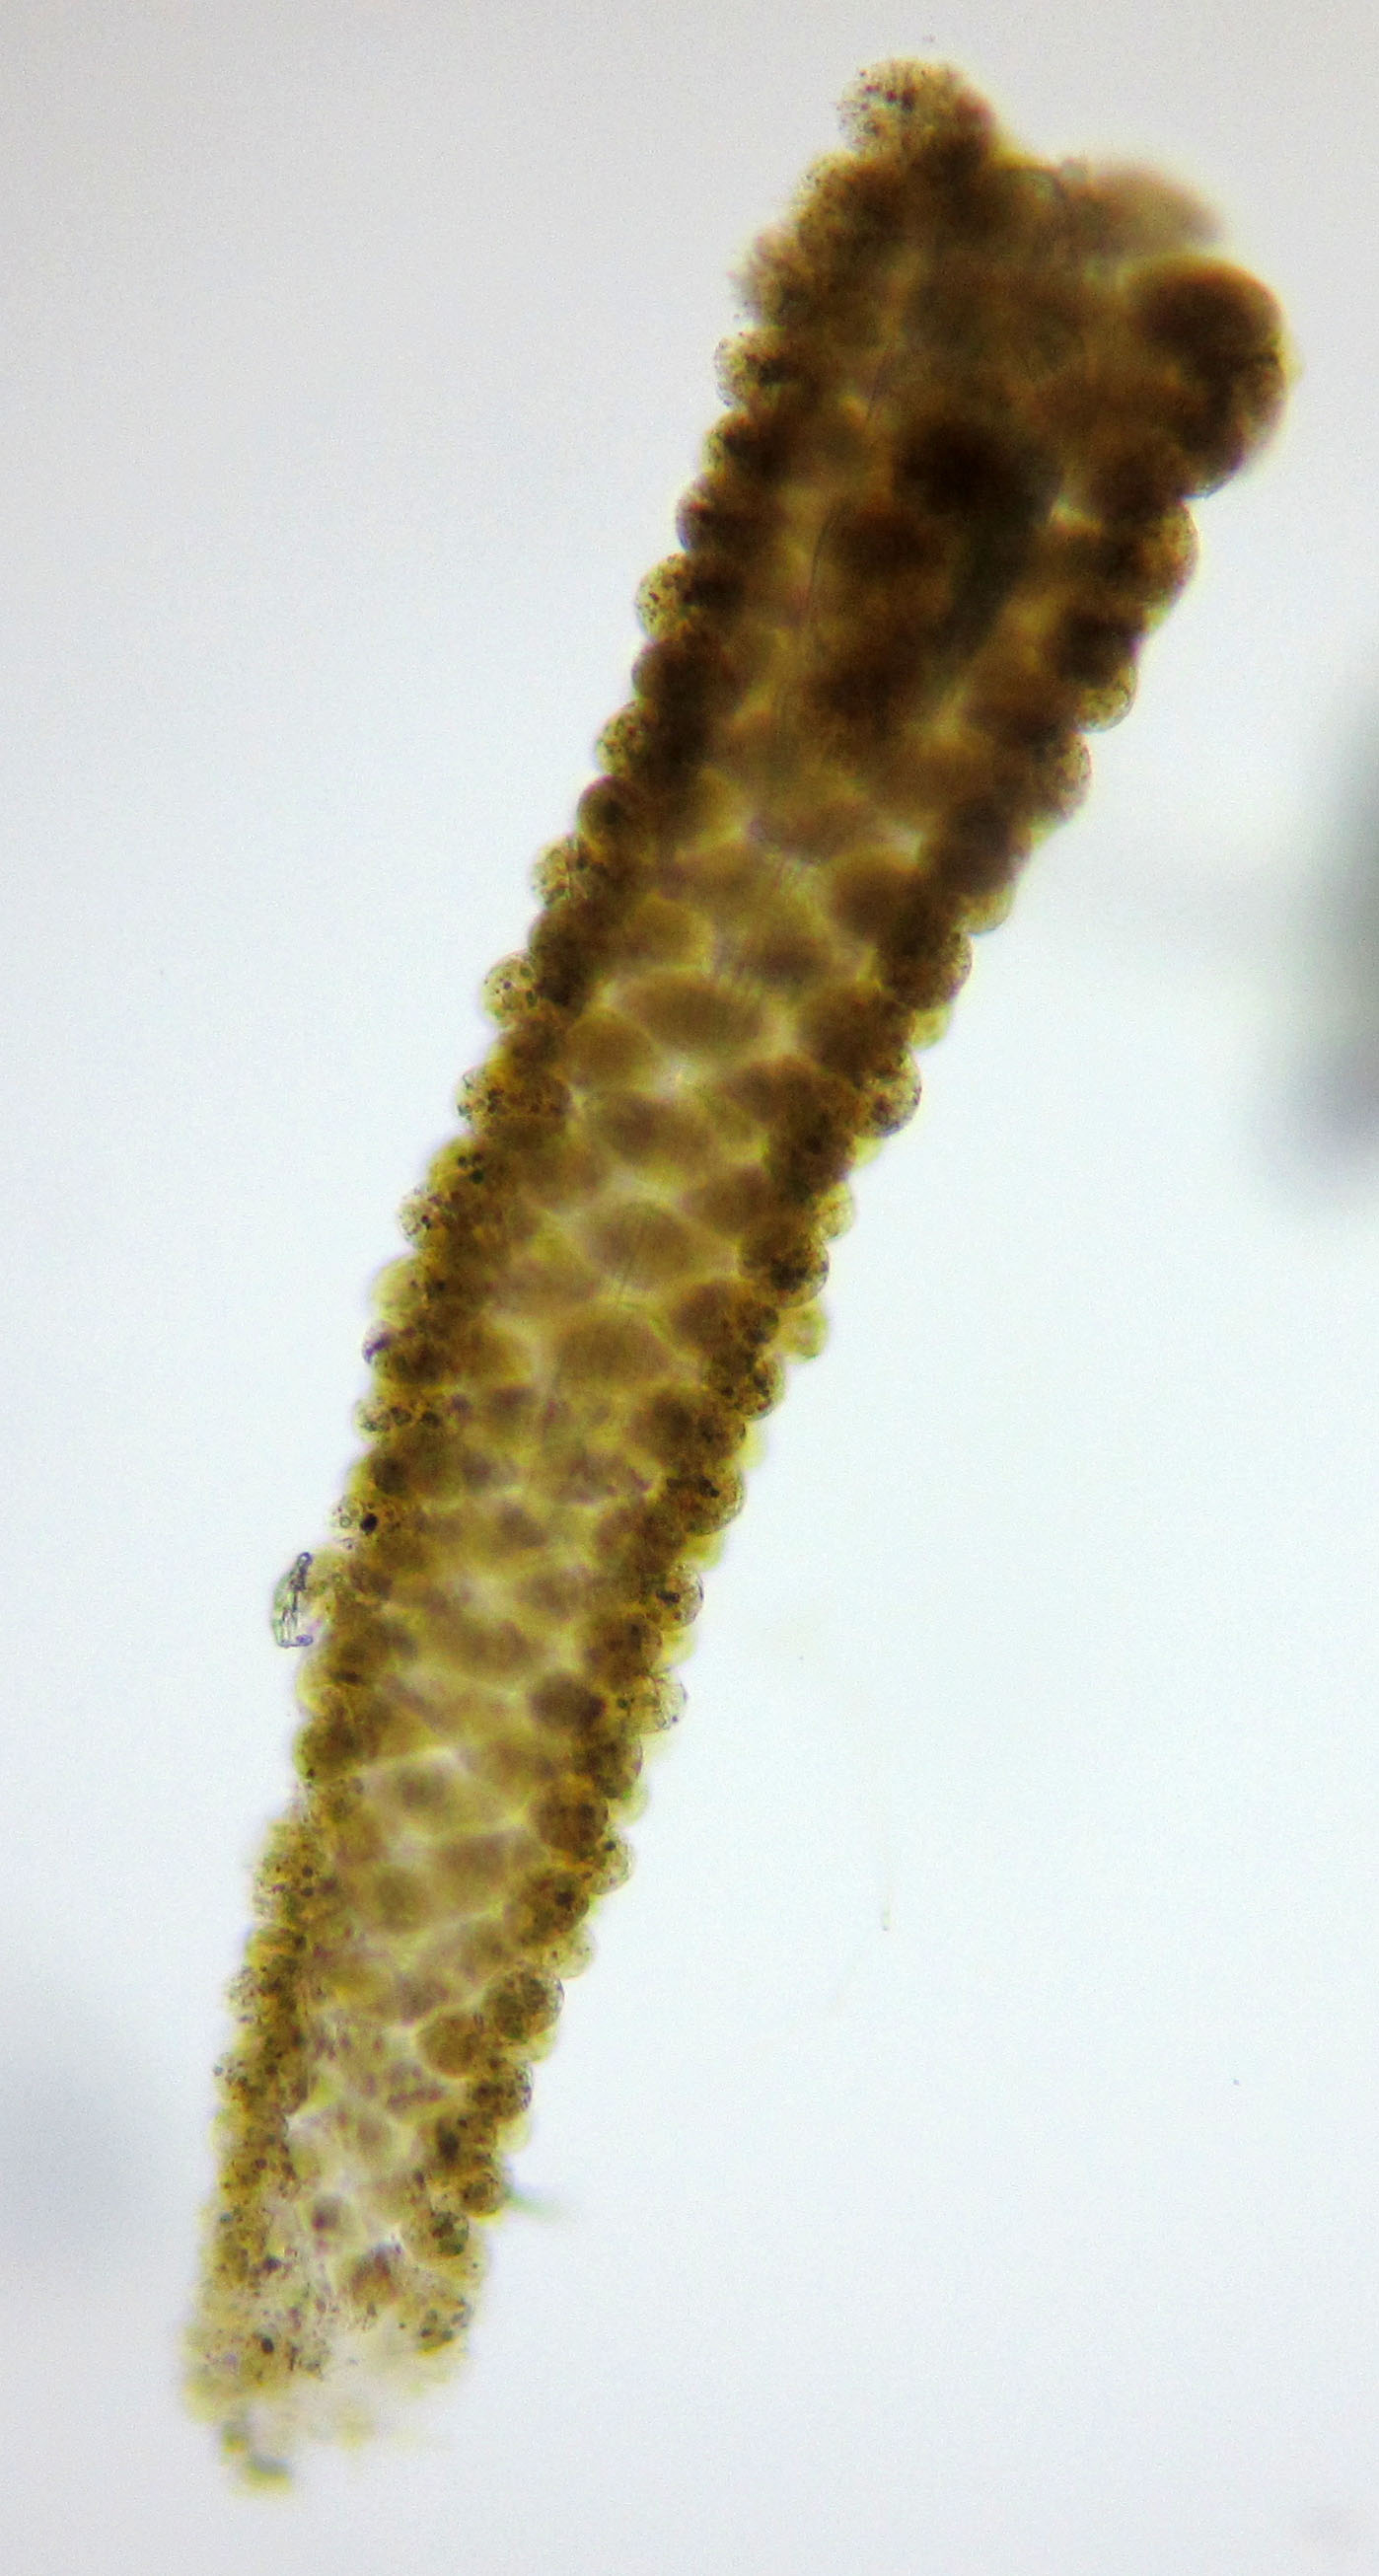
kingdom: Animalia
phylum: Rotifera
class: Eurotatoria
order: Flosculariaceae
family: Flosculariidae
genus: Ptygura
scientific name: Ptygura pilula
